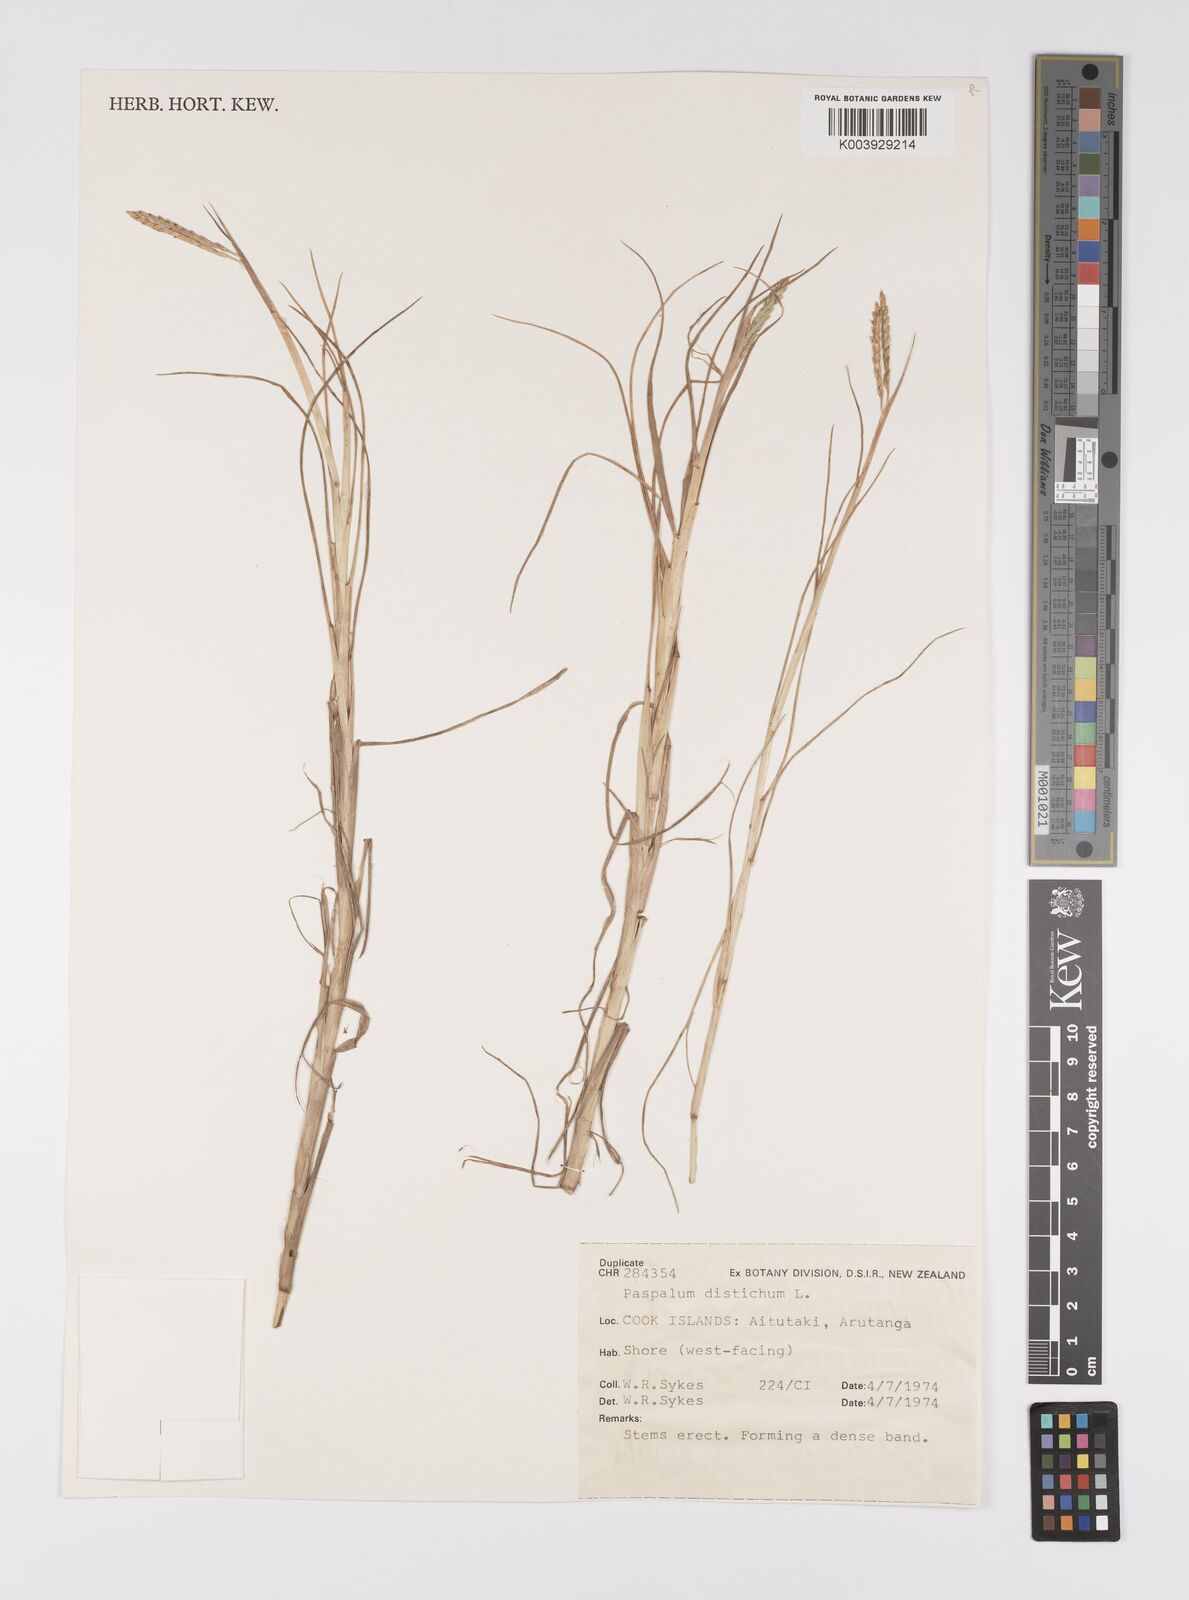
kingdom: Plantae
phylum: Tracheophyta
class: Liliopsida
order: Poales
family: Poaceae
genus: Paspalum
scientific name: Paspalum vaginatum
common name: Seashore paspalum
